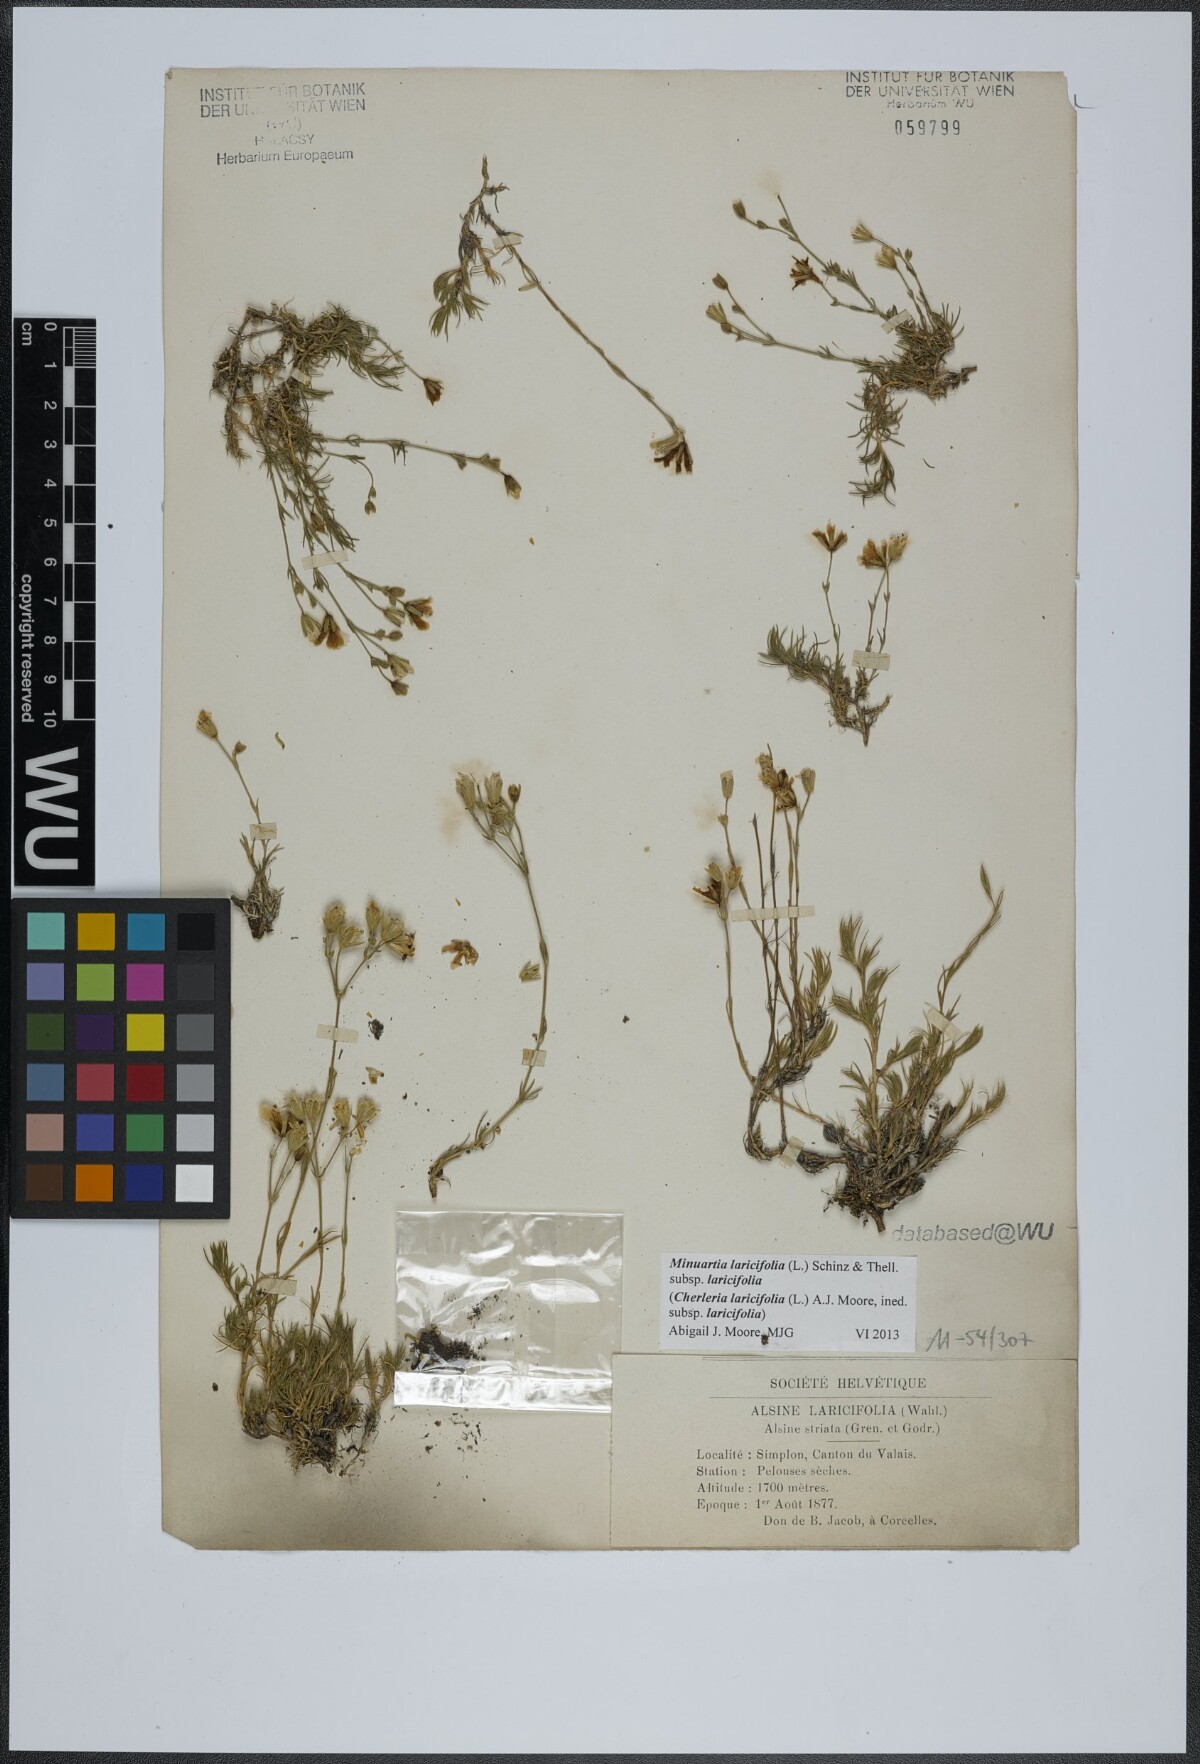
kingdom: Plantae
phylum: Tracheophyta
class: Magnoliopsida
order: Caryophyllales
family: Caryophyllaceae
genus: Cherleria
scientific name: Cherleria laricifolia
